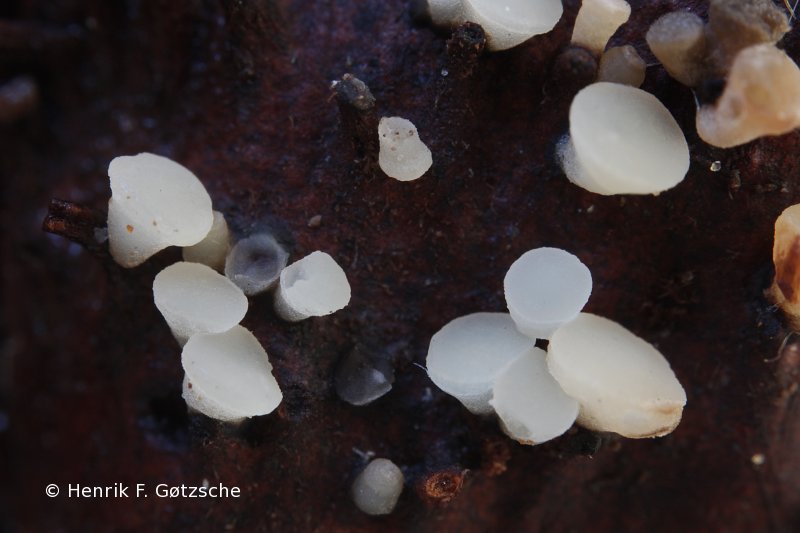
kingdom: Fungi
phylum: Ascomycota
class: Leotiomycetes
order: Helotiales
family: Helotiaceae
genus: Hymenoscyphus
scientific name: Hymenoscyphus fagineus
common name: vellugtende stilkskive
